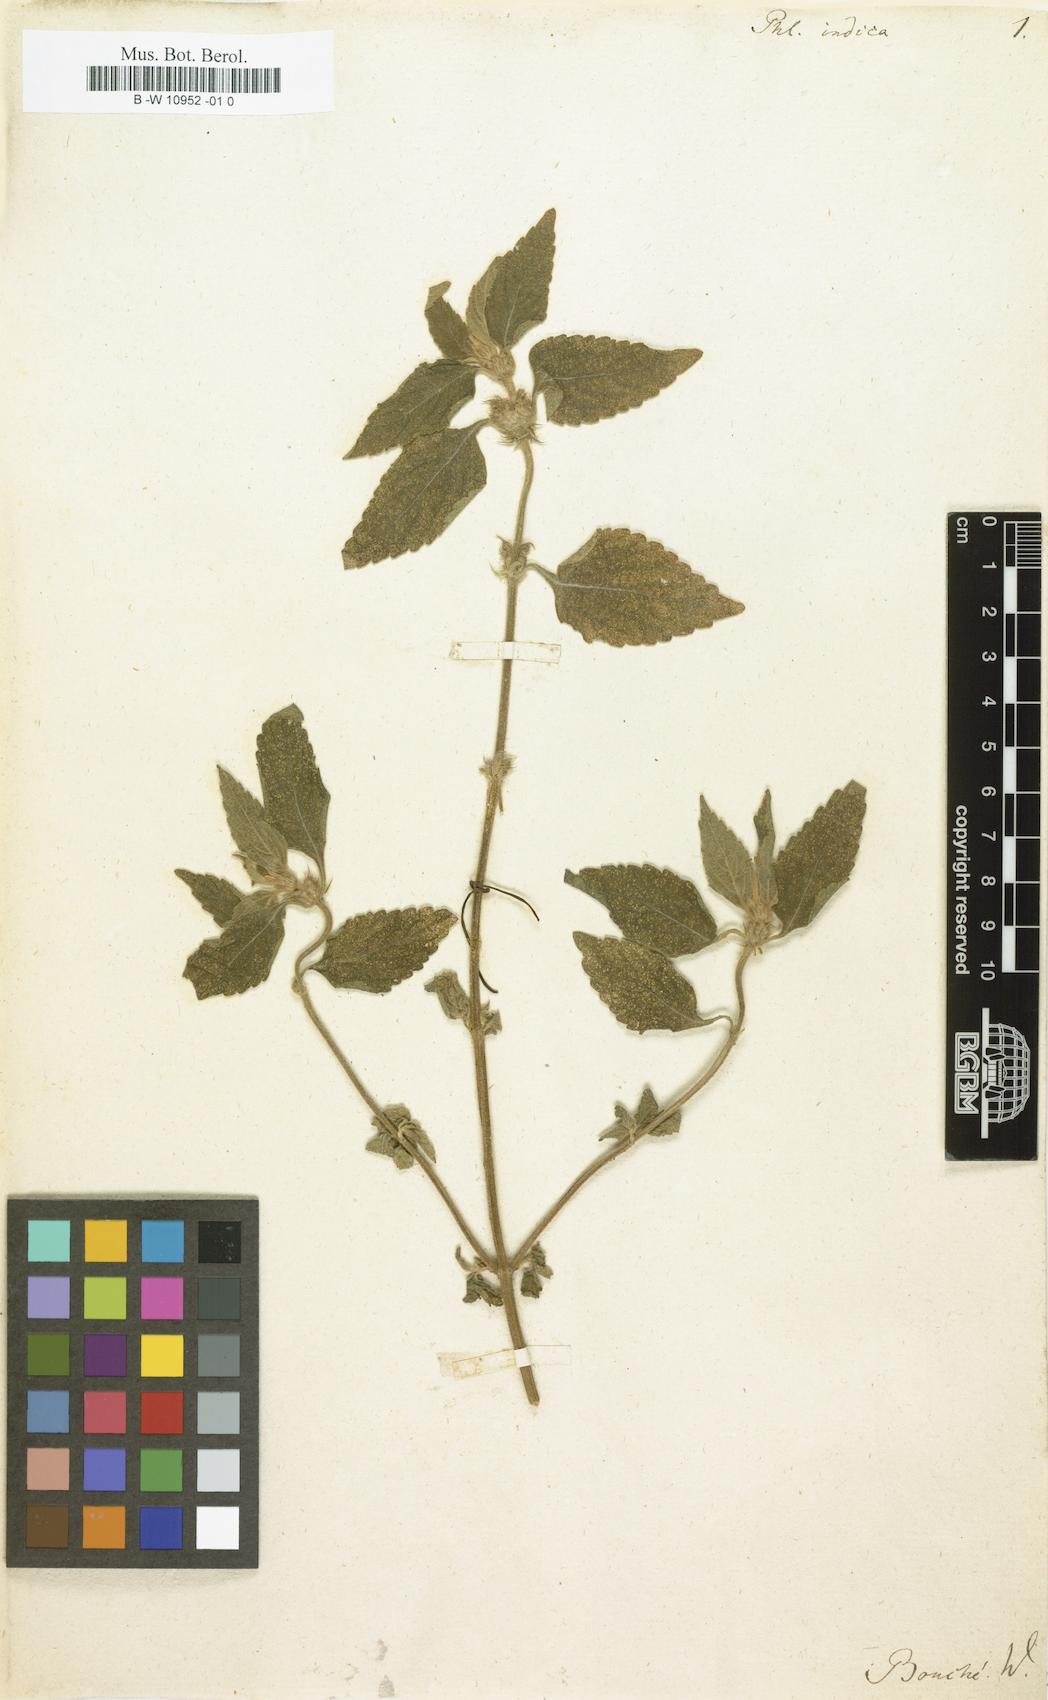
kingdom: Plantae
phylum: Tracheophyta
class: Magnoliopsida
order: Lamiales
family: Lamiaceae
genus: Phlomis
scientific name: Phlomis indica
